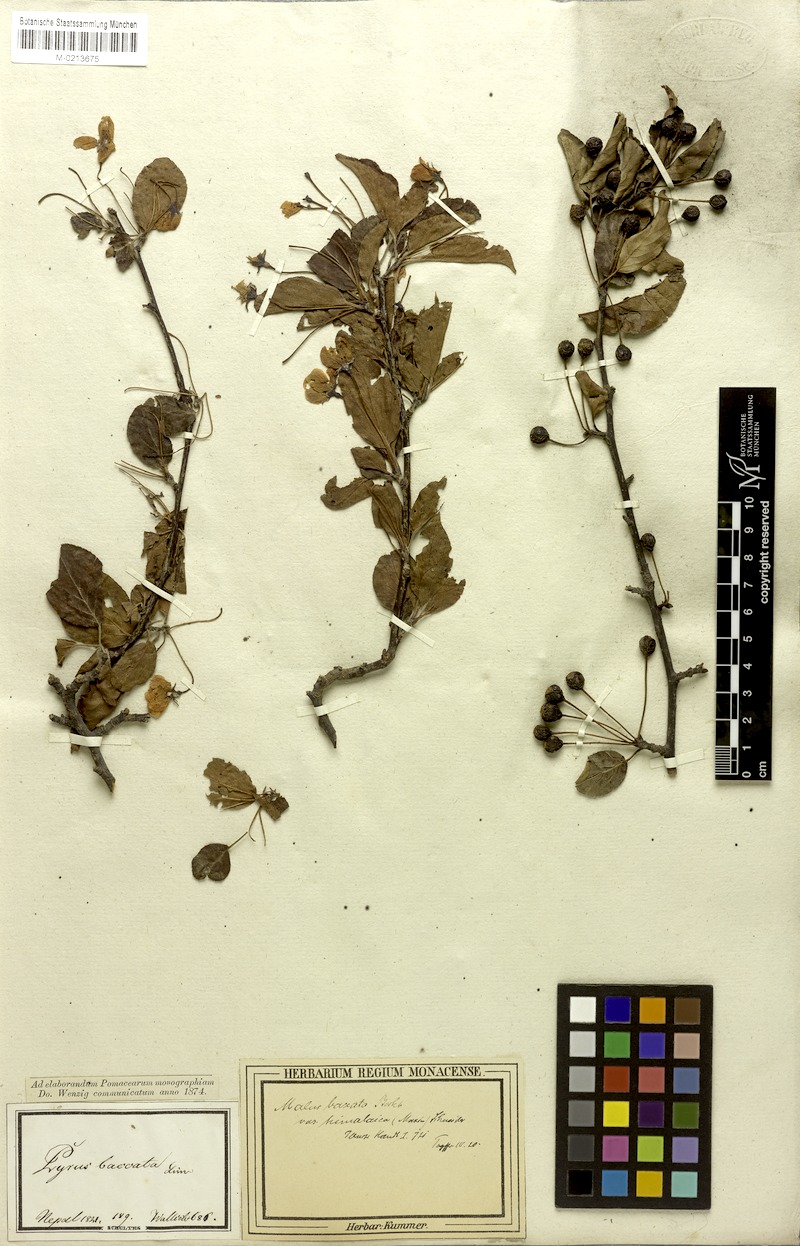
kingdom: Plantae
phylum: Tracheophyta
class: Magnoliopsida
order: Rosales
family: Rosaceae
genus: Malus
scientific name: Malus baccata
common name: Siberian crab
